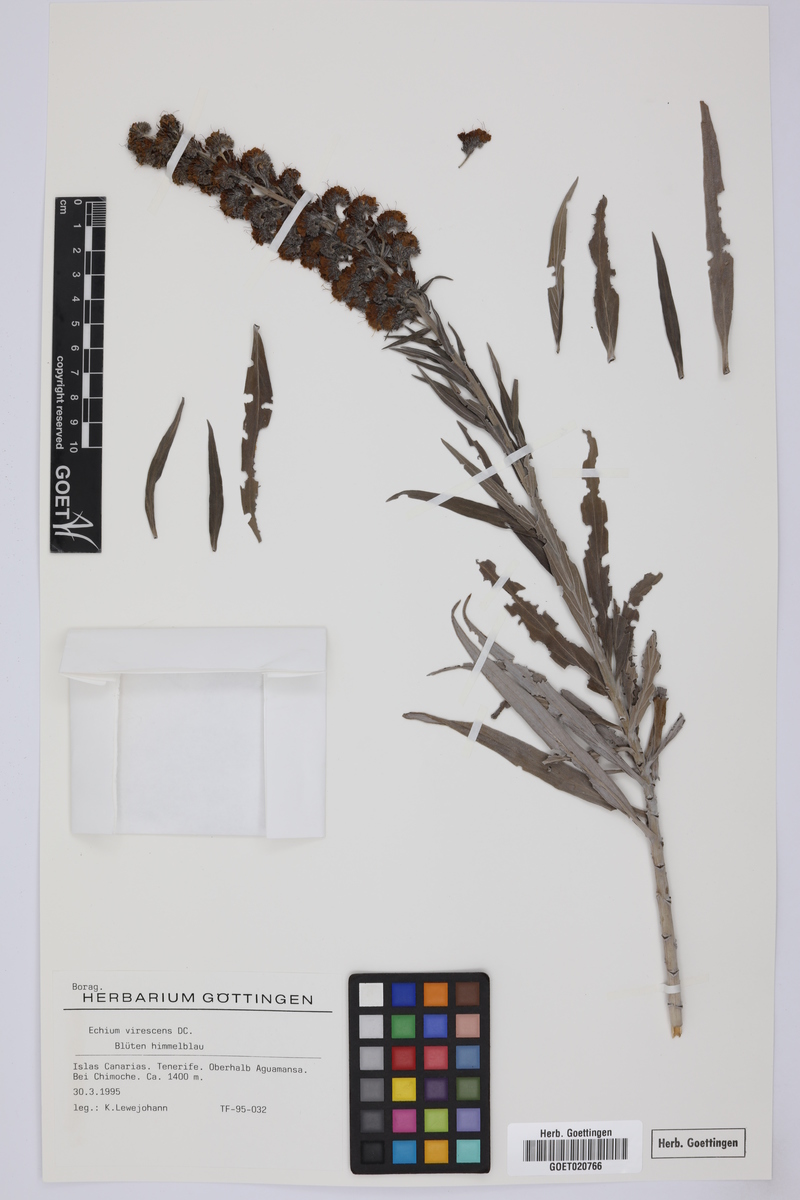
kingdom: Plantae
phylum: Tracheophyta
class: Magnoliopsida
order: Boraginales
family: Boraginaceae
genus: Echium
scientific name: Echium virescens
